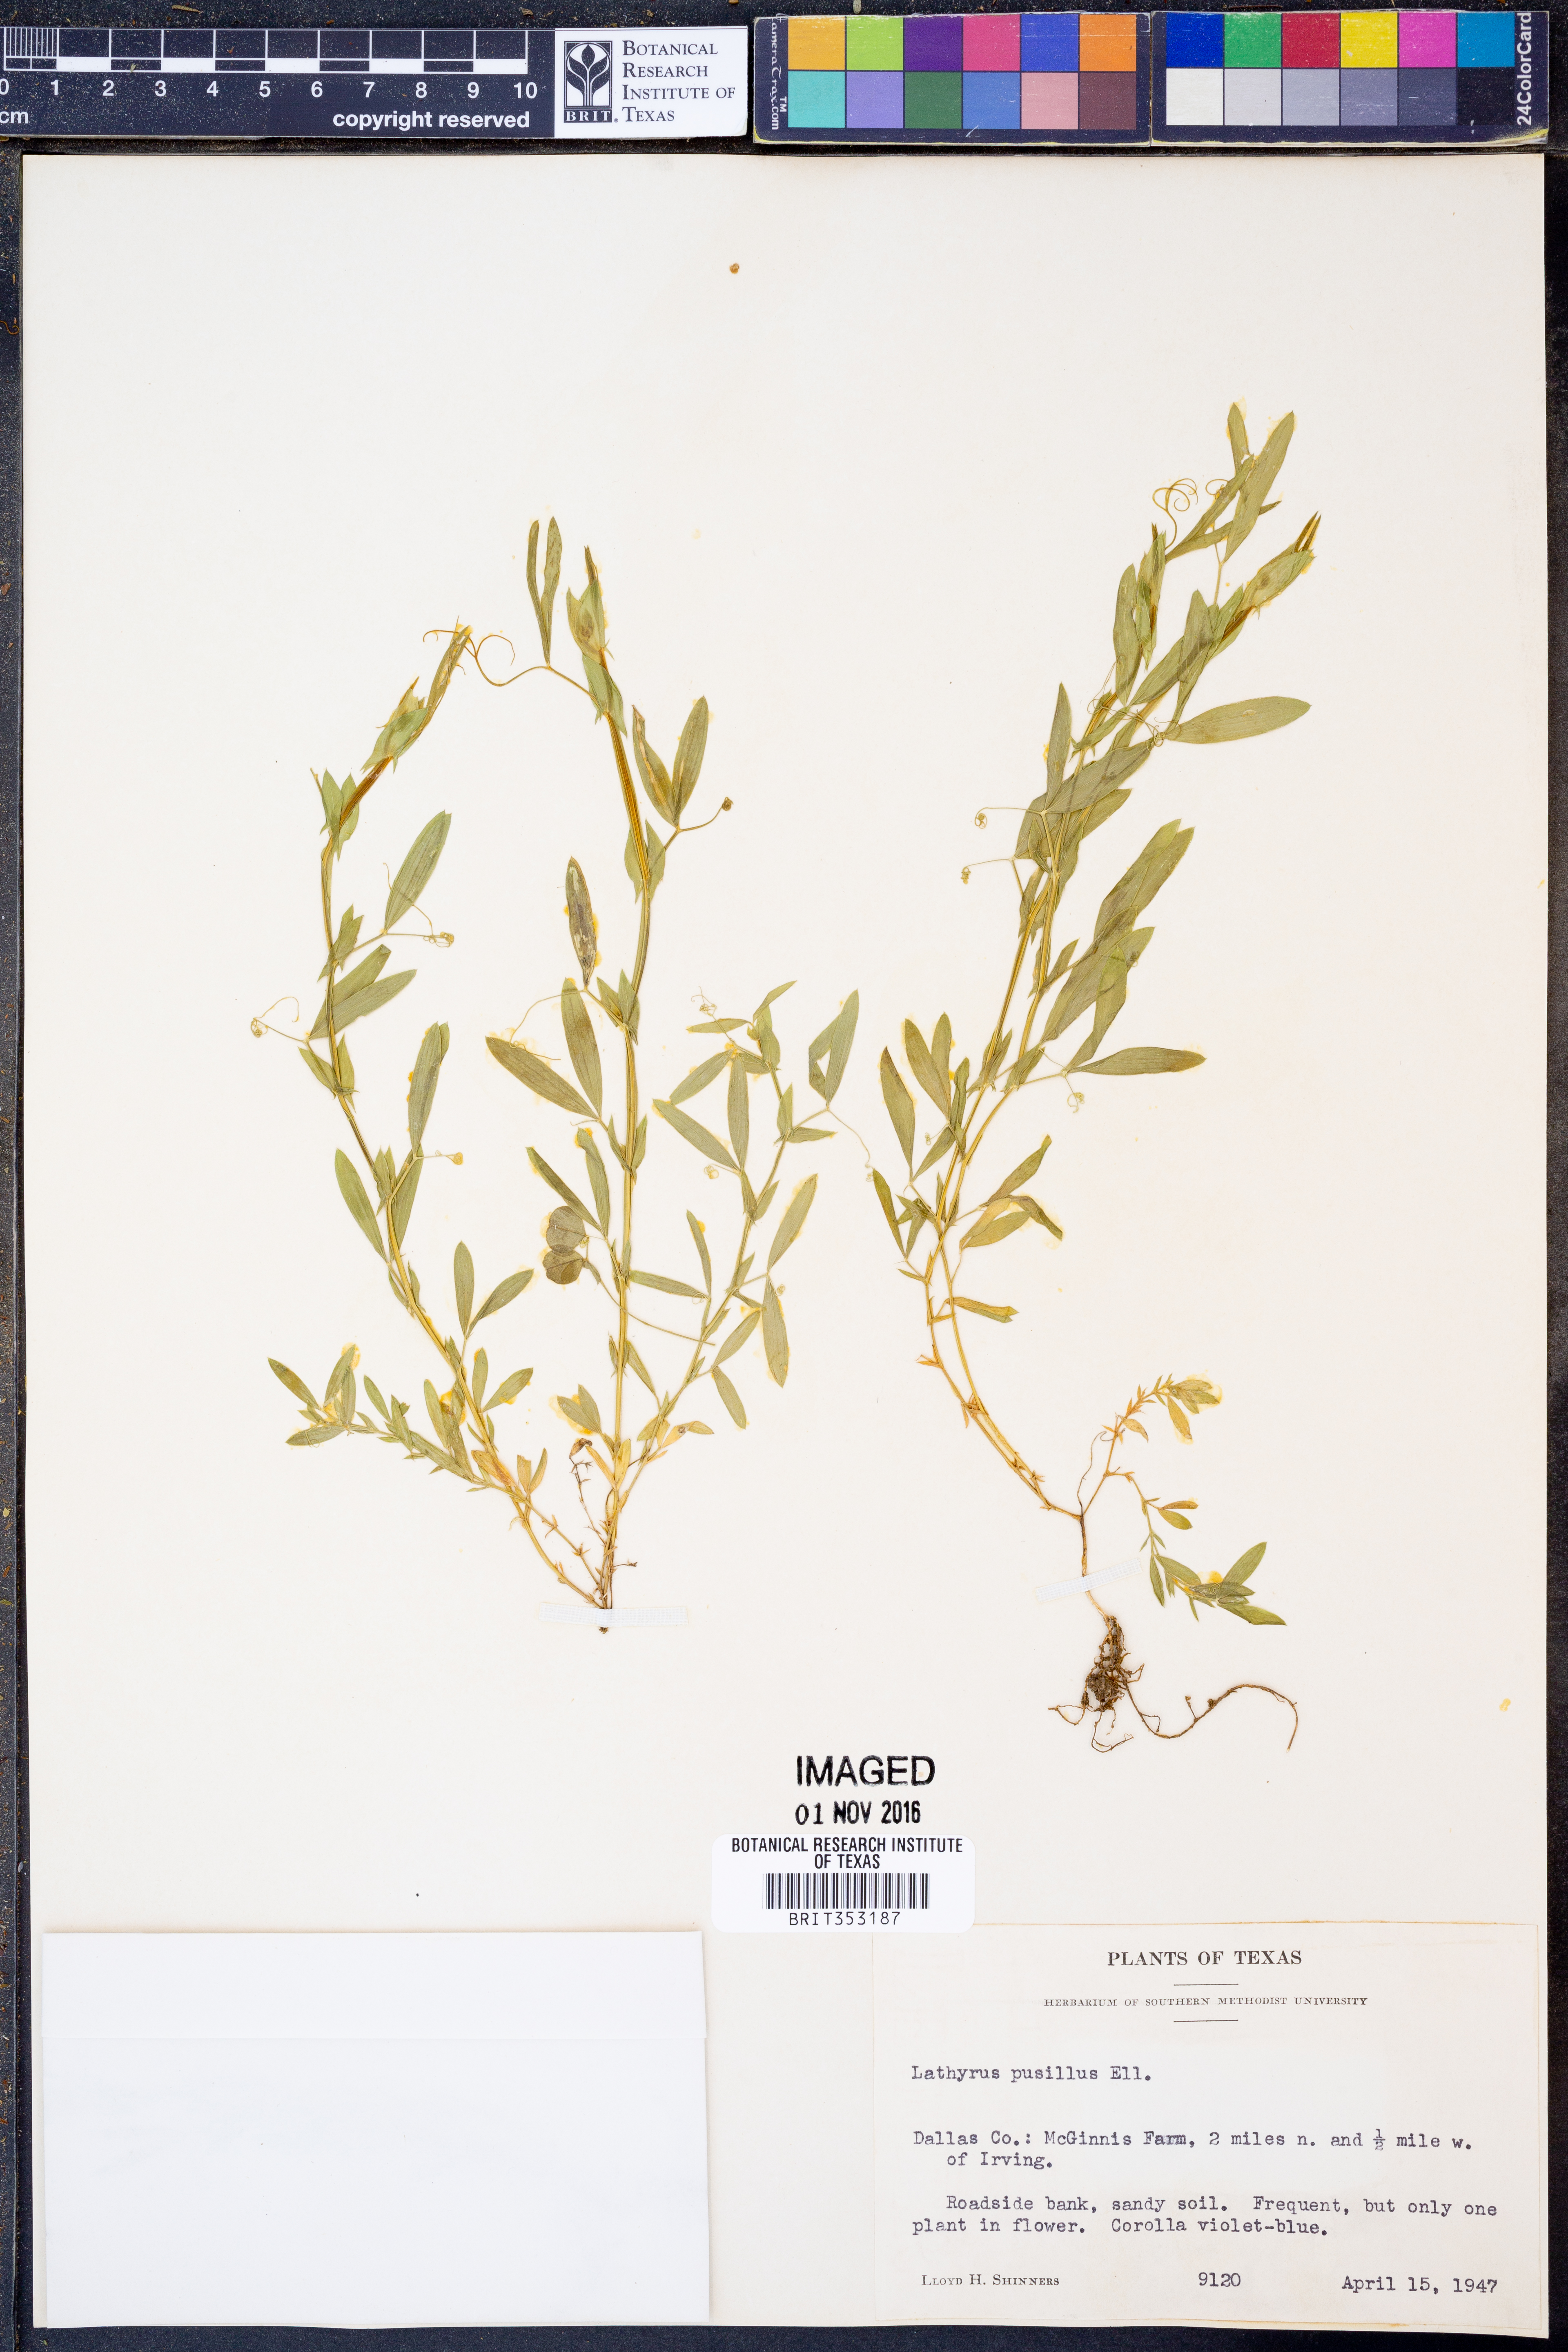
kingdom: Plantae
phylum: Tracheophyta
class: Magnoliopsida
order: Fabales
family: Fabaceae
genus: Lathyrus
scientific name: Lathyrus pusillus
